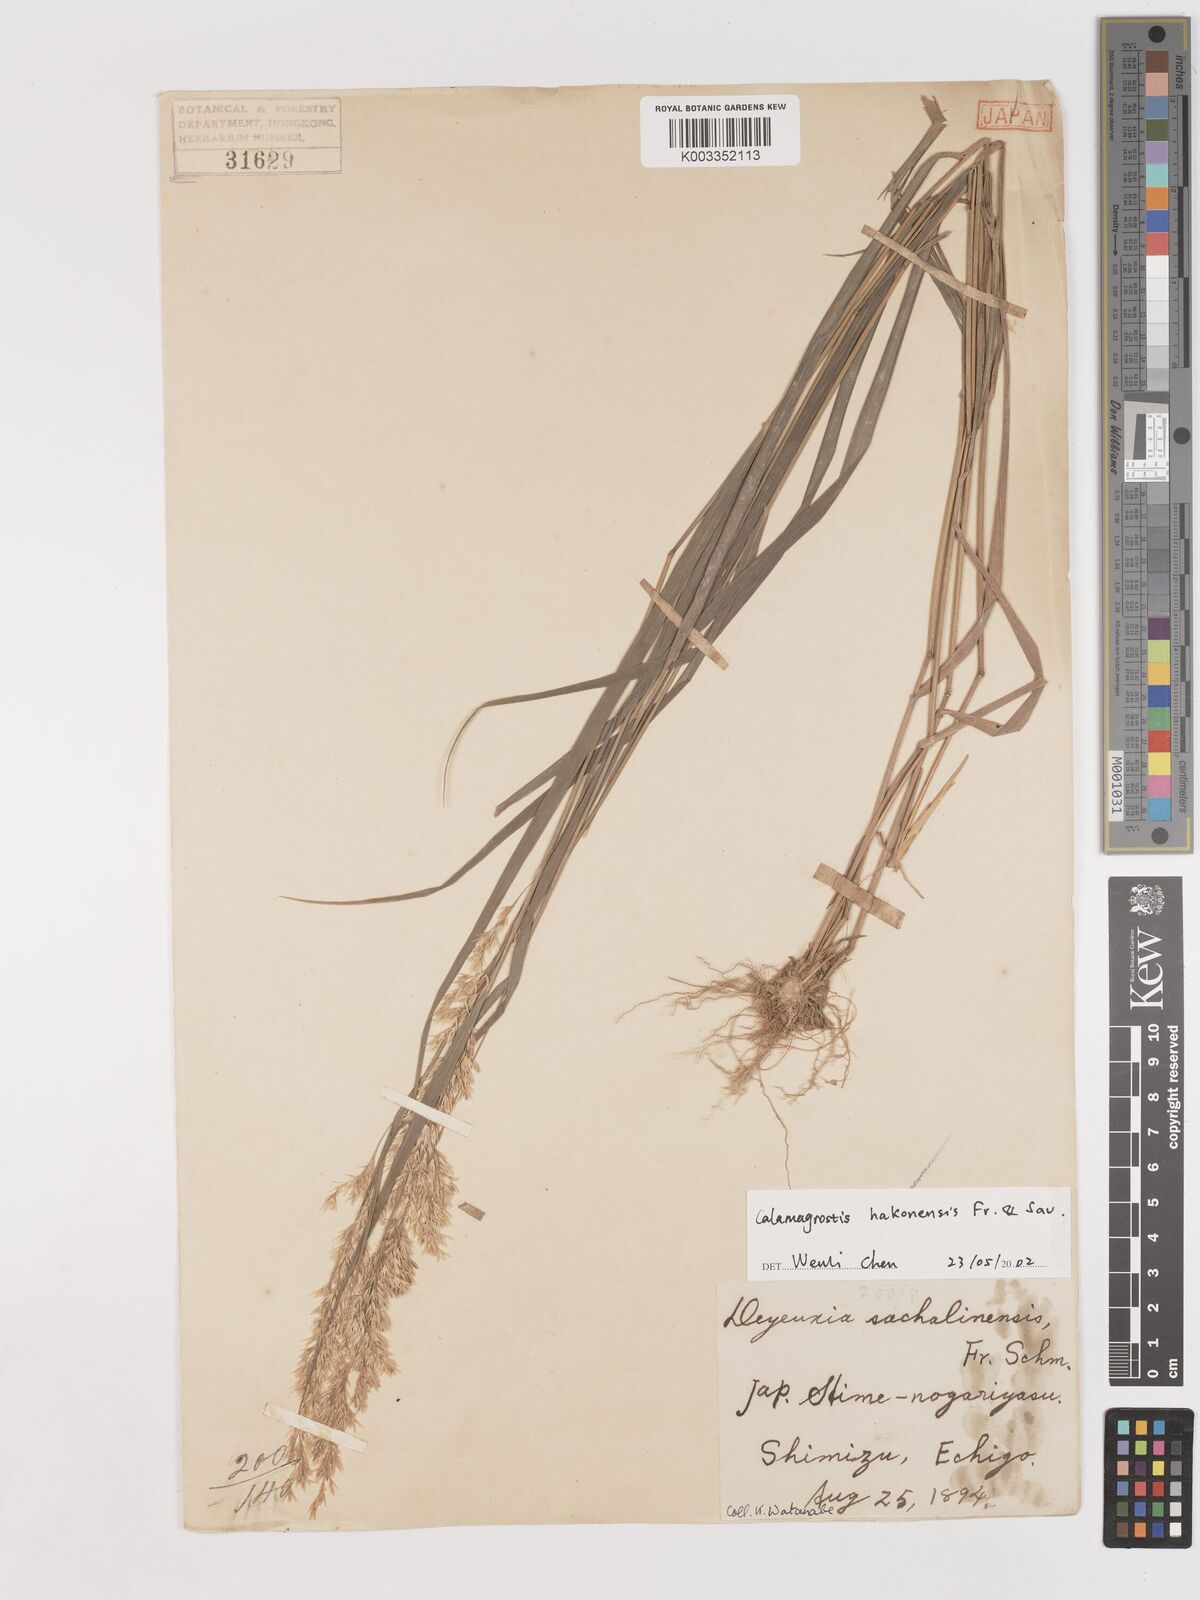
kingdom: Plantae
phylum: Tracheophyta
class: Liliopsida
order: Poales
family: Poaceae
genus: Calamagrostis
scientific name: Calamagrostis hakonensis
